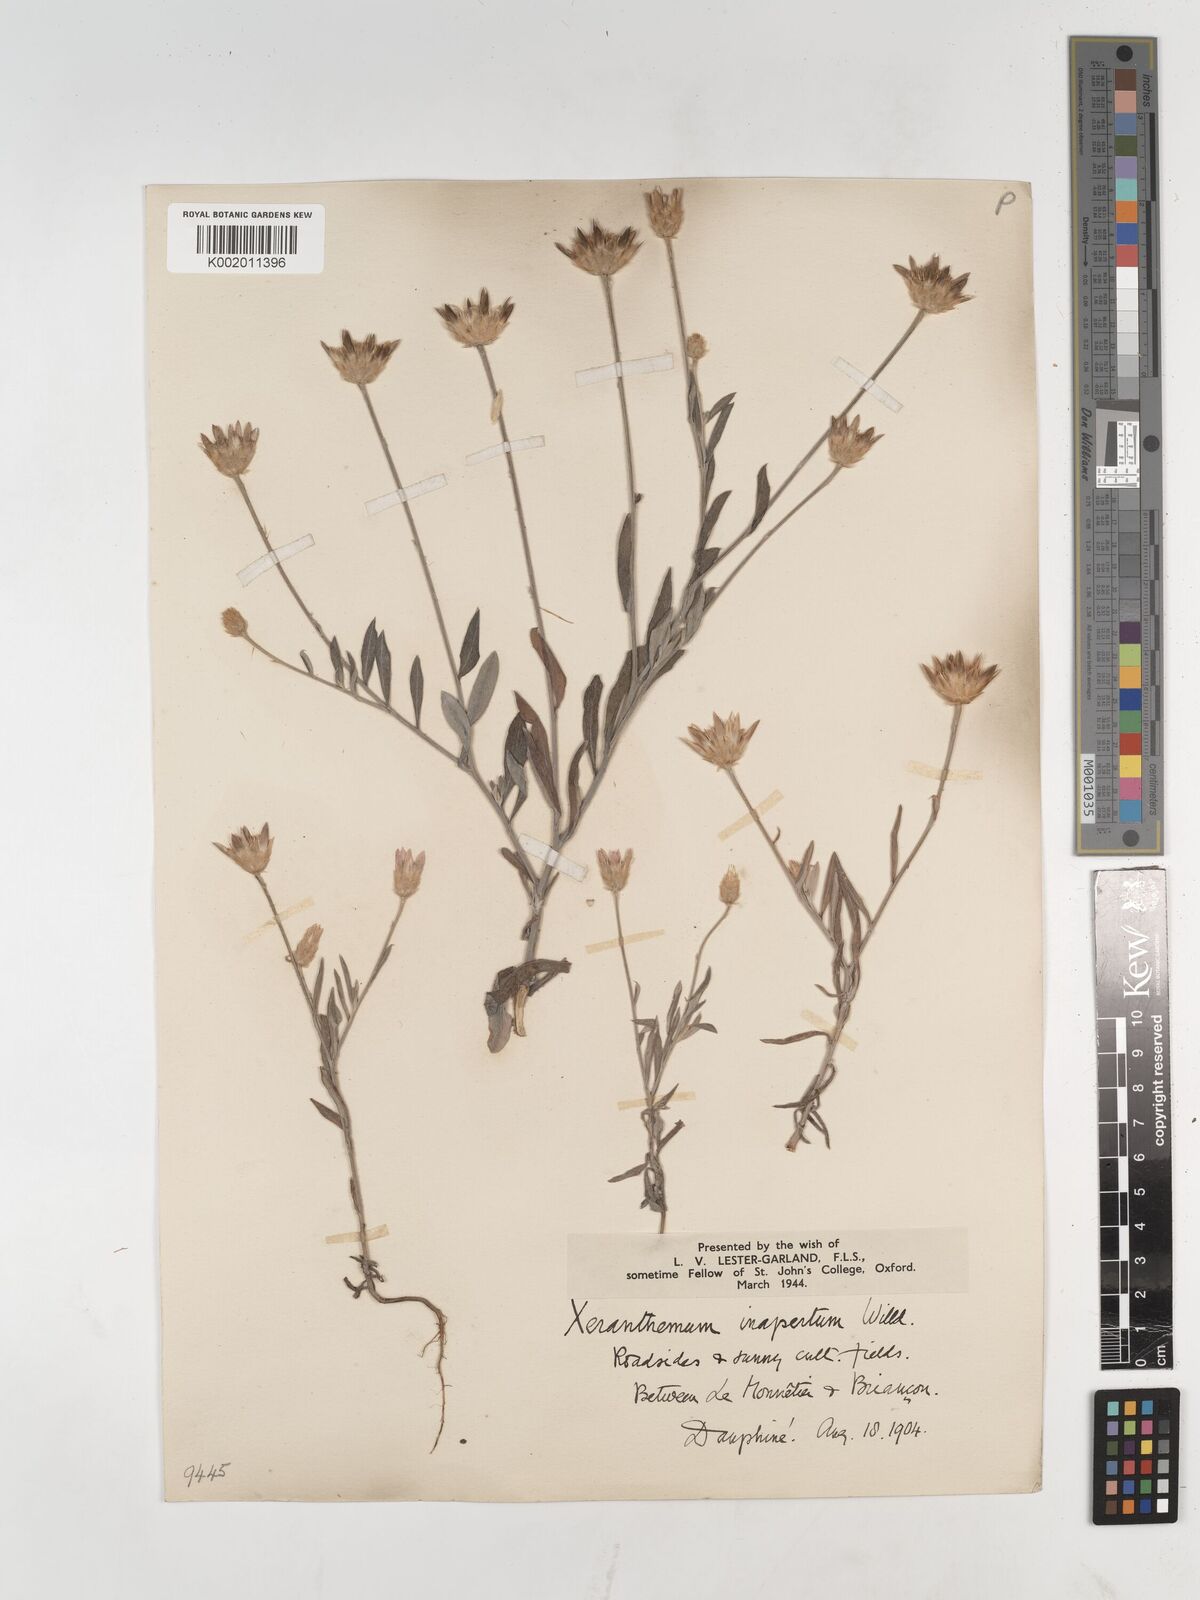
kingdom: Plantae
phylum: Tracheophyta
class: Magnoliopsida
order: Asterales
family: Asteraceae
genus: Xeranthemum
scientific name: Xeranthemum inapertum
